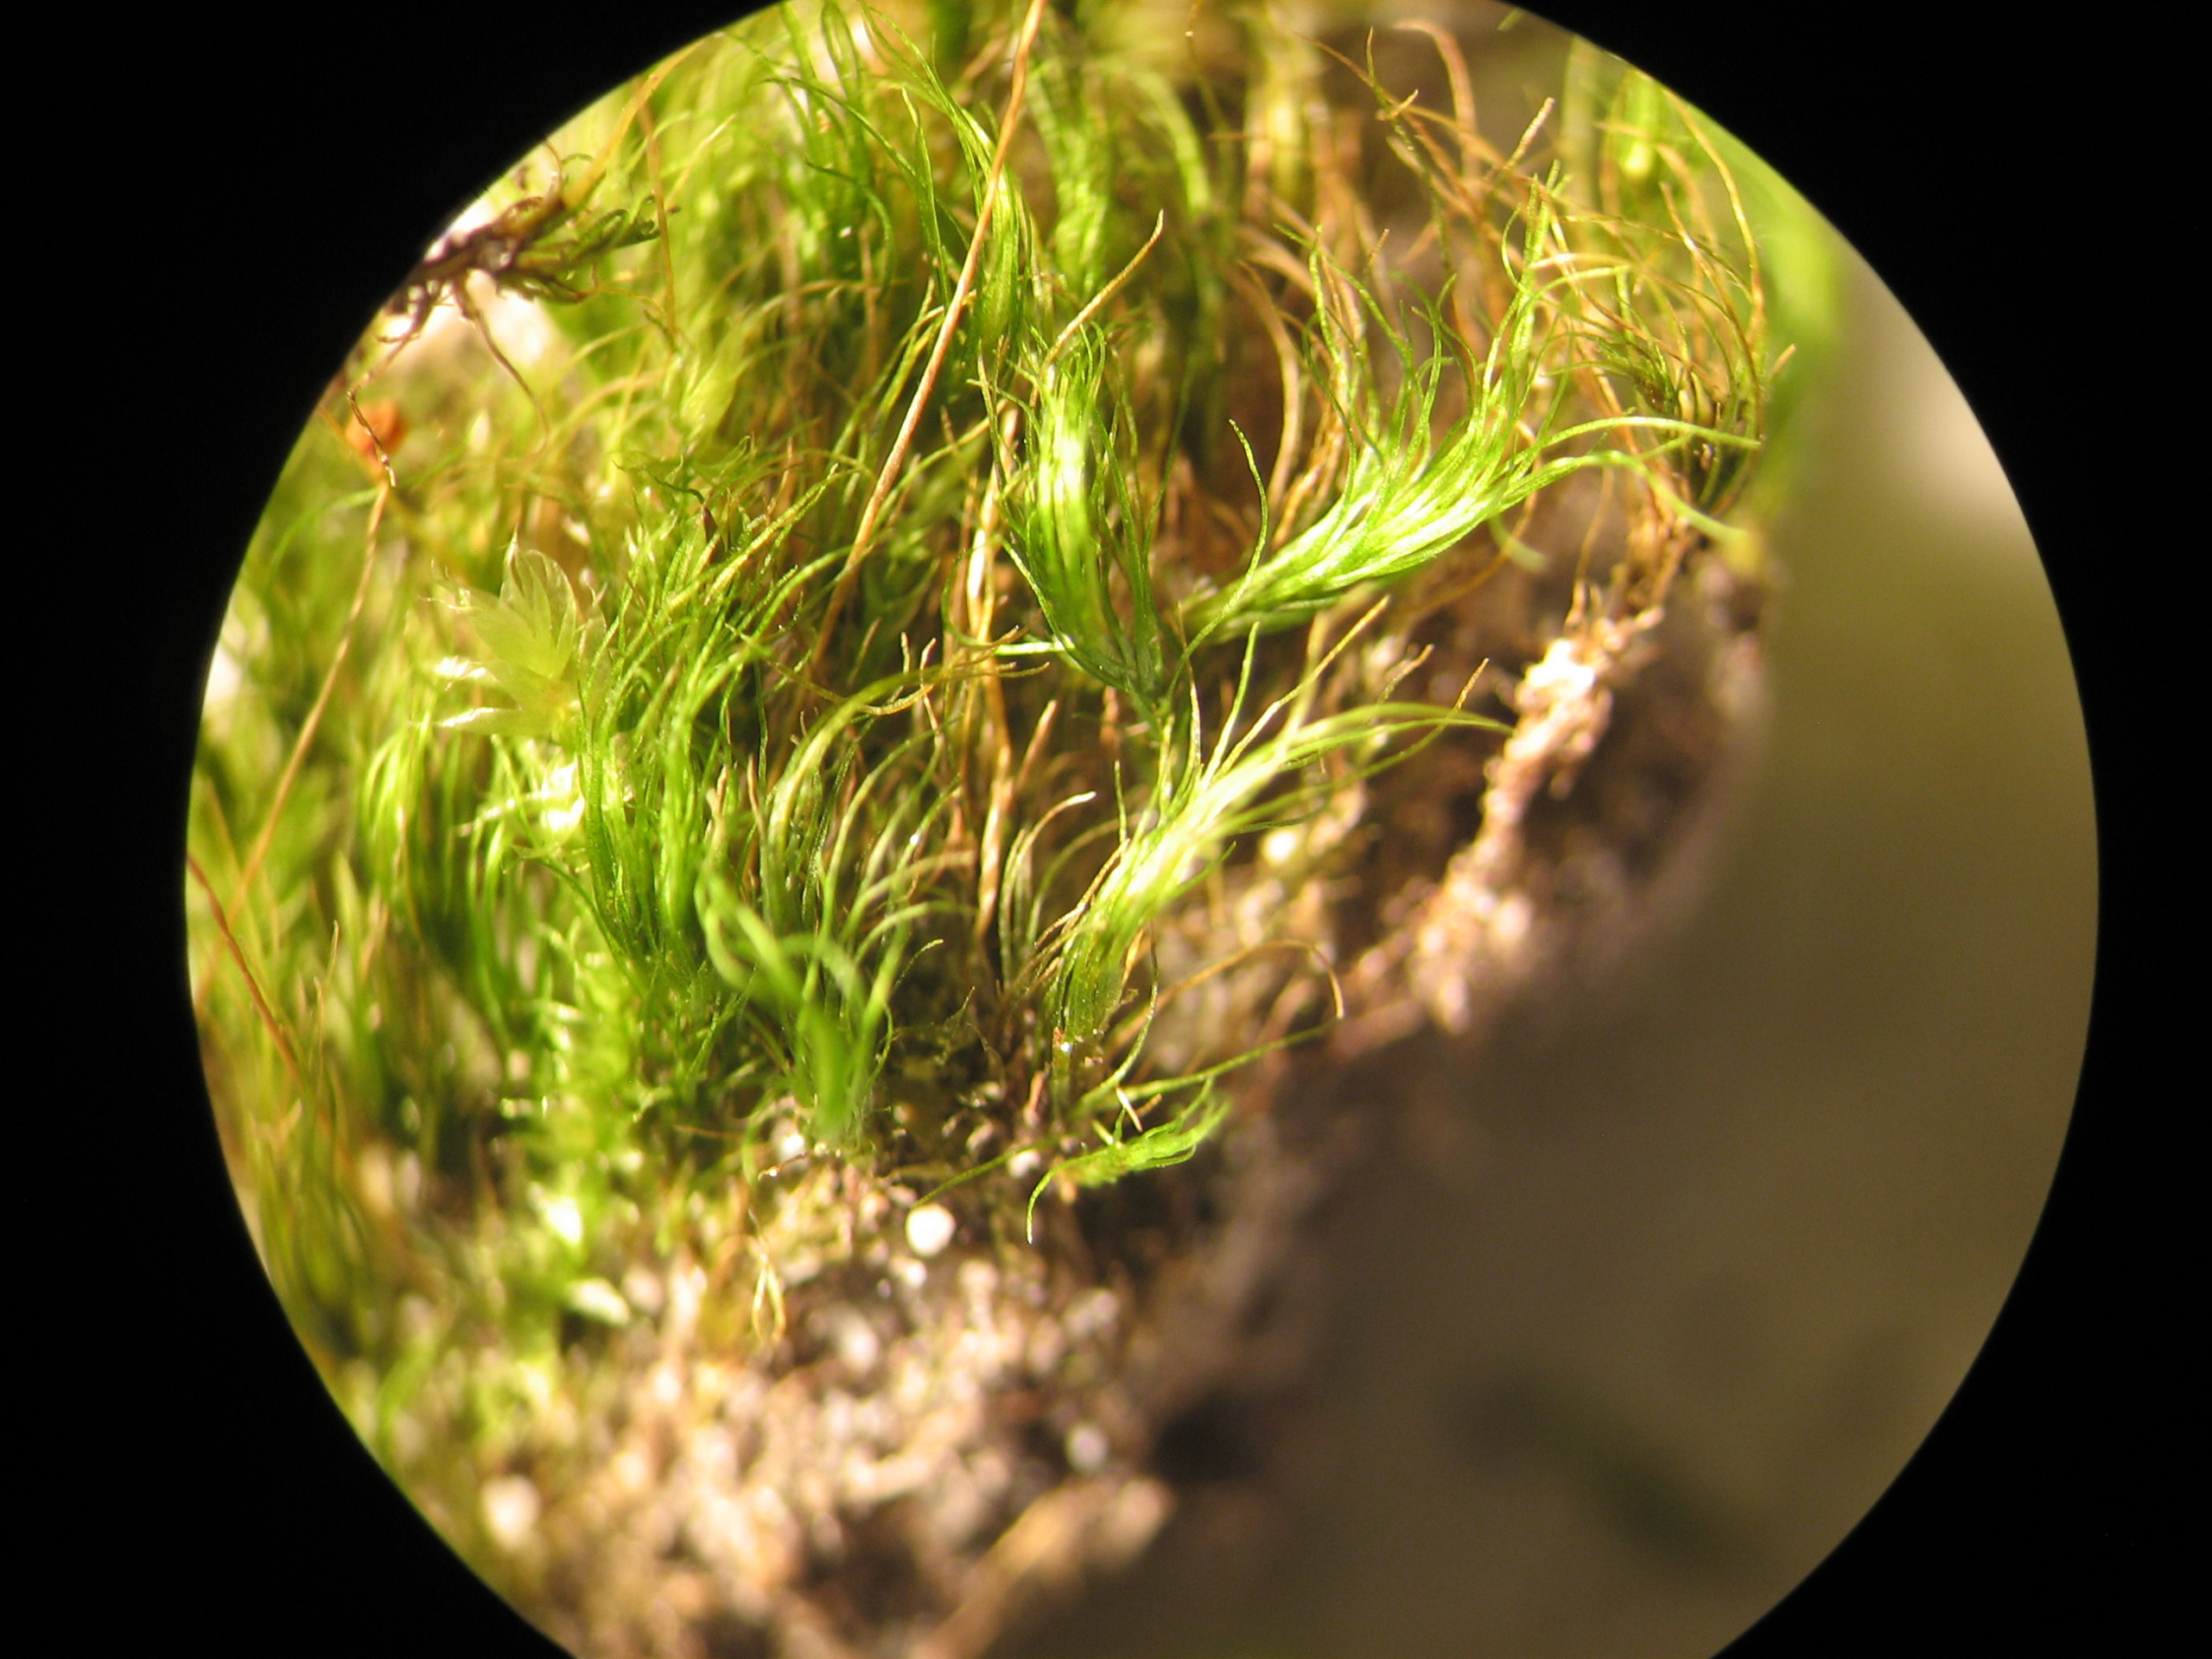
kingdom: Plantae
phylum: Bryophyta
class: Bryopsida
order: Dicranales
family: Dicranellaceae
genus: Dicranella
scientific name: Dicranella heteromalla
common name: Almindelig fløjlsmos
